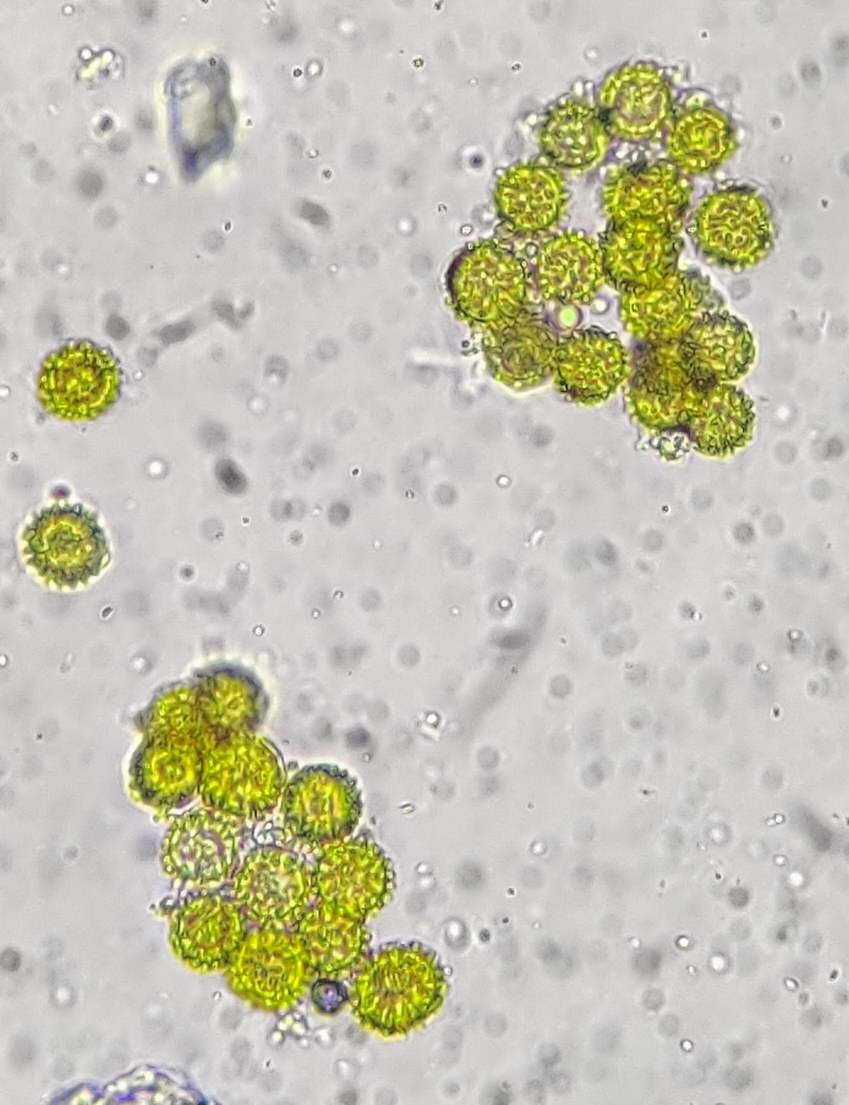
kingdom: Fungi
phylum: Ascomycota
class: Sordariomycetes
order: Hypocreales
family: Hypocreaceae
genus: Hypomyces
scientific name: Hypomyces microspermus
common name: dværgrørhat-snylteskorpe
